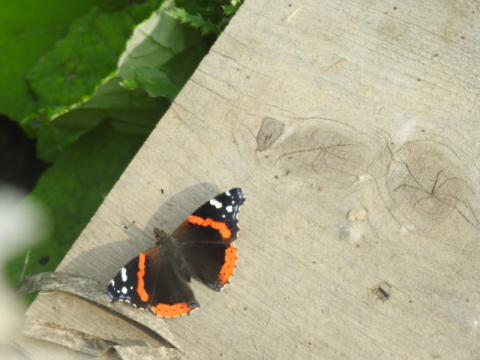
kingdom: Animalia
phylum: Arthropoda
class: Insecta
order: Lepidoptera
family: Nymphalidae
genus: Vanessa
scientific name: Vanessa atalanta
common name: Red Admiral
